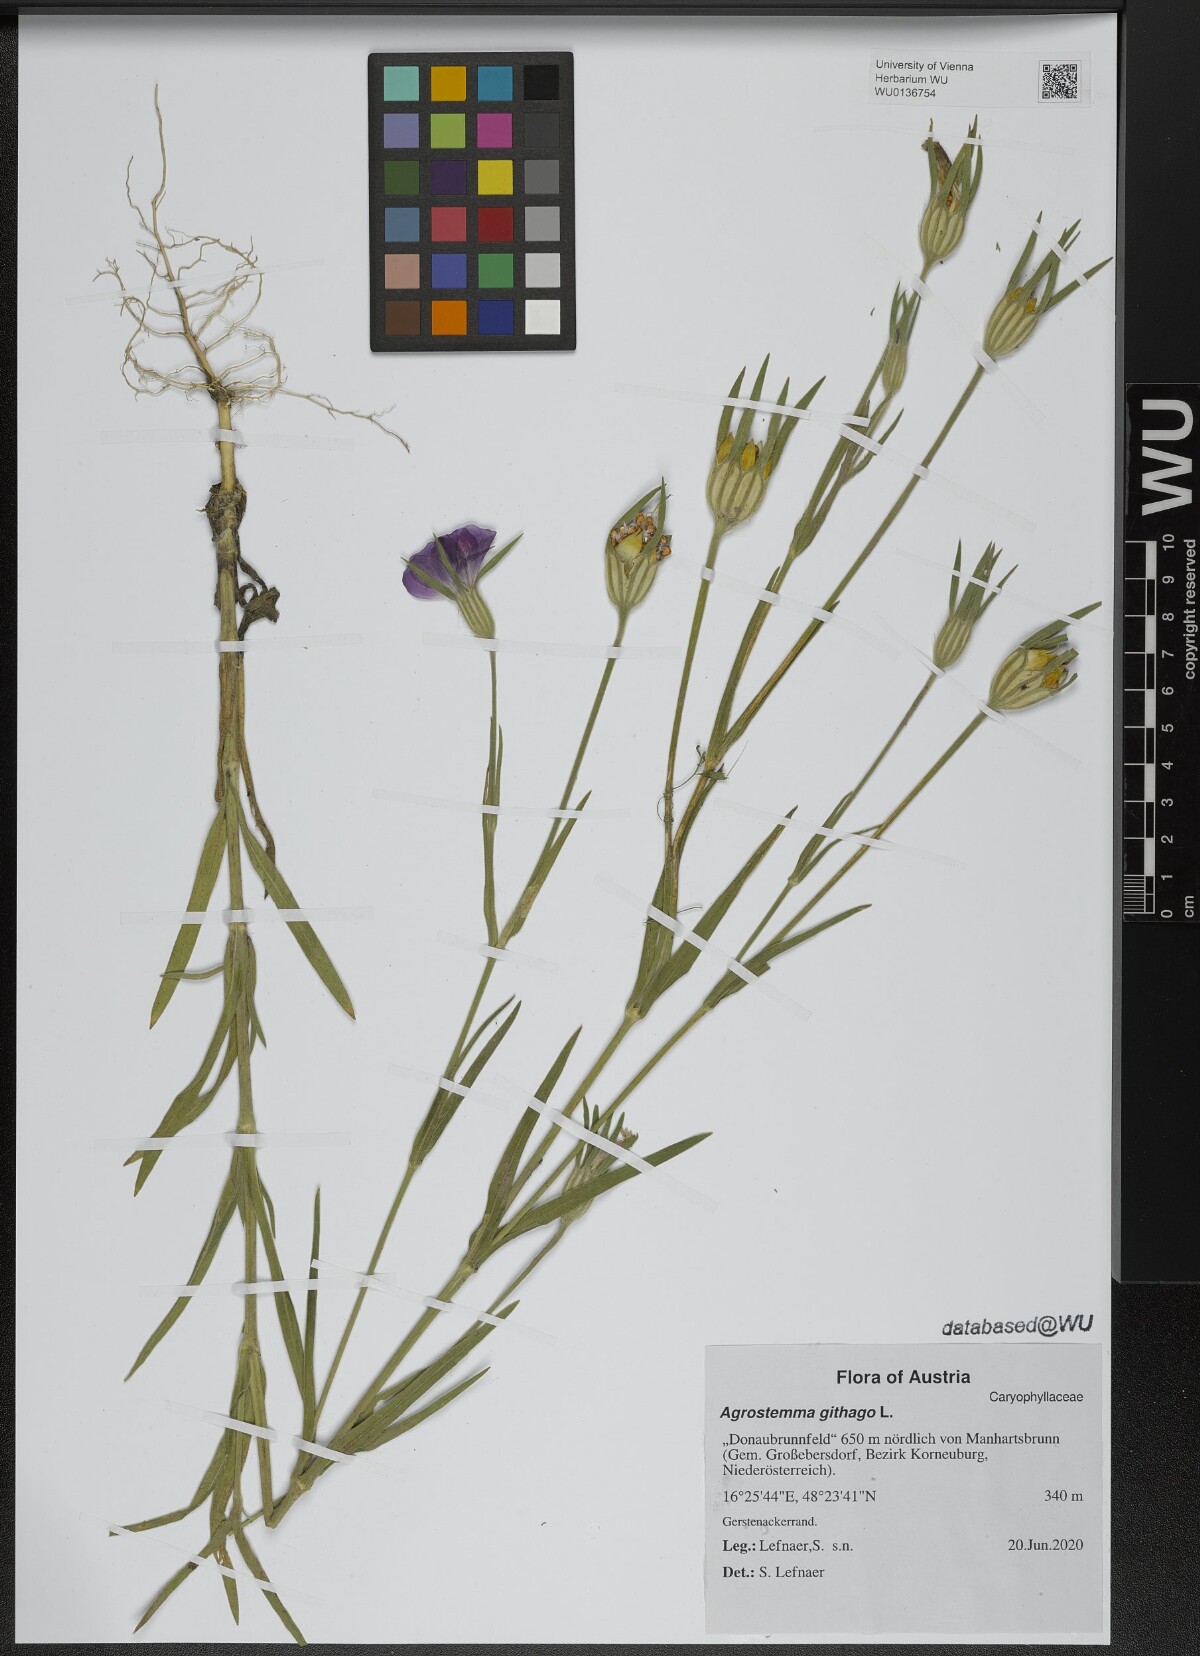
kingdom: Plantae
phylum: Tracheophyta
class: Magnoliopsida
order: Caryophyllales
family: Caryophyllaceae
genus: Agrostemma
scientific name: Agrostemma githago
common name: Common corncockle
